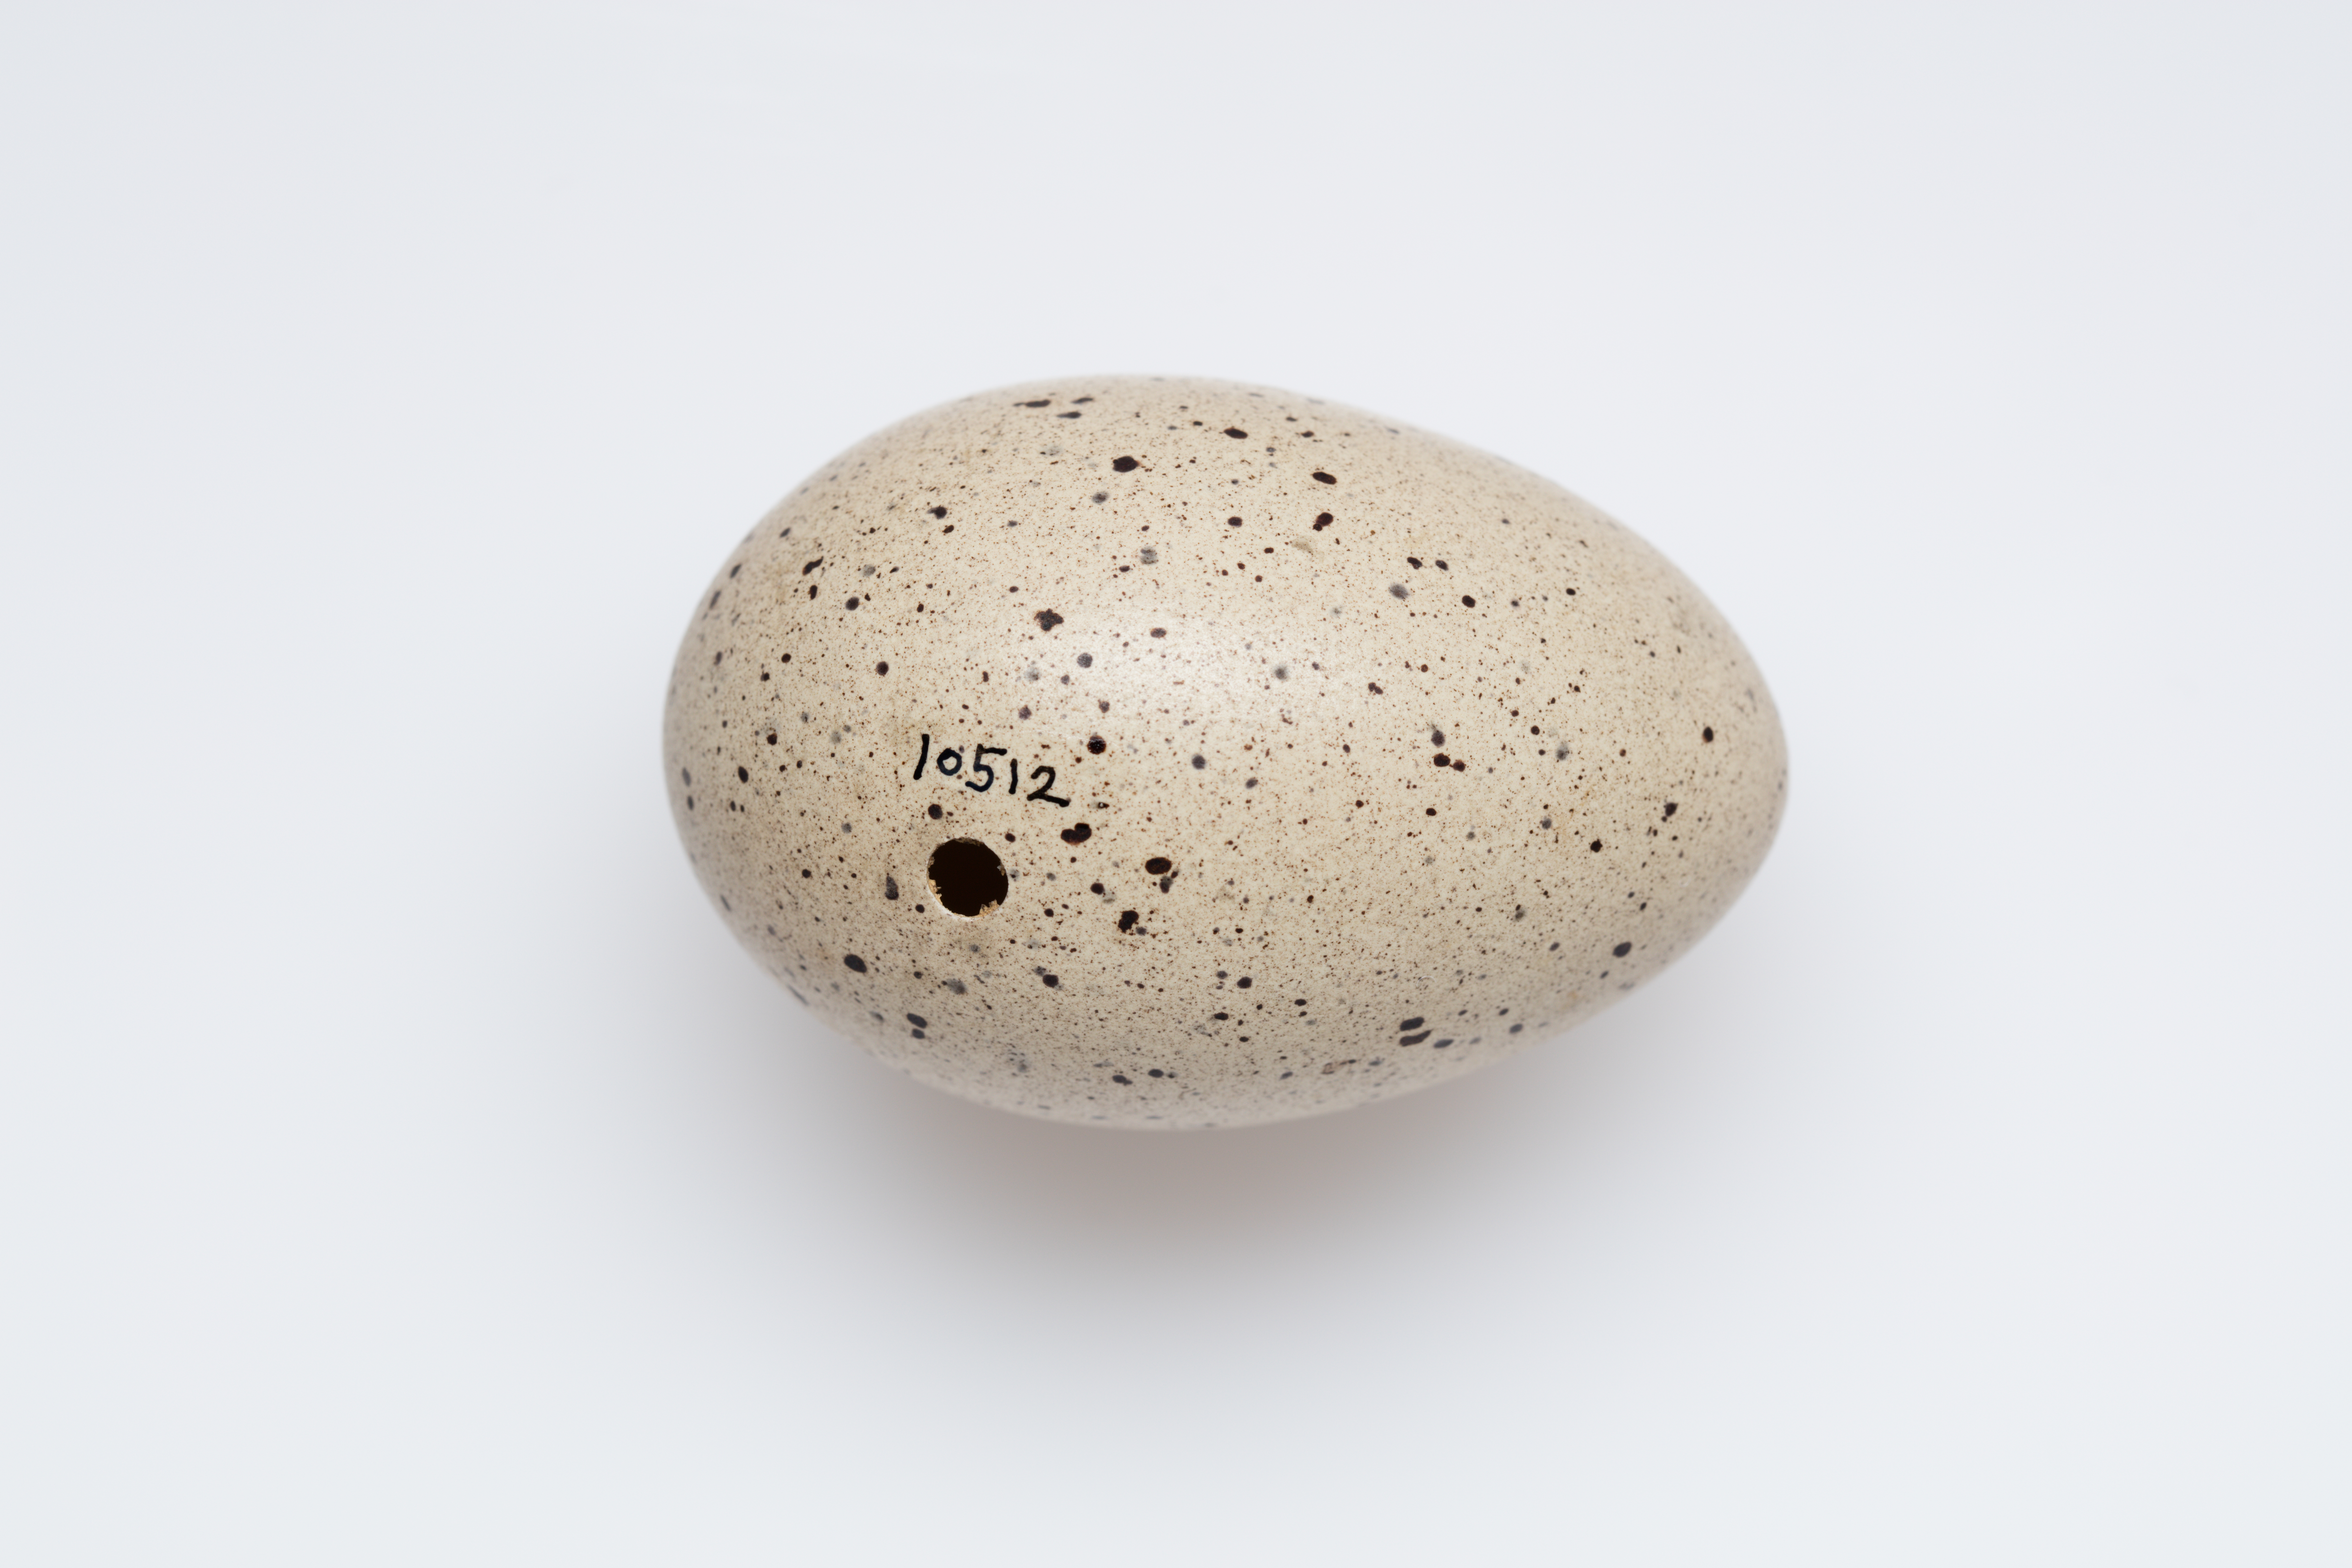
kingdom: Animalia
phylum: Chordata
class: Aves
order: Gruiformes
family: Rallidae
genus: Fulica
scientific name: Fulica atra
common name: Eurasian coot
